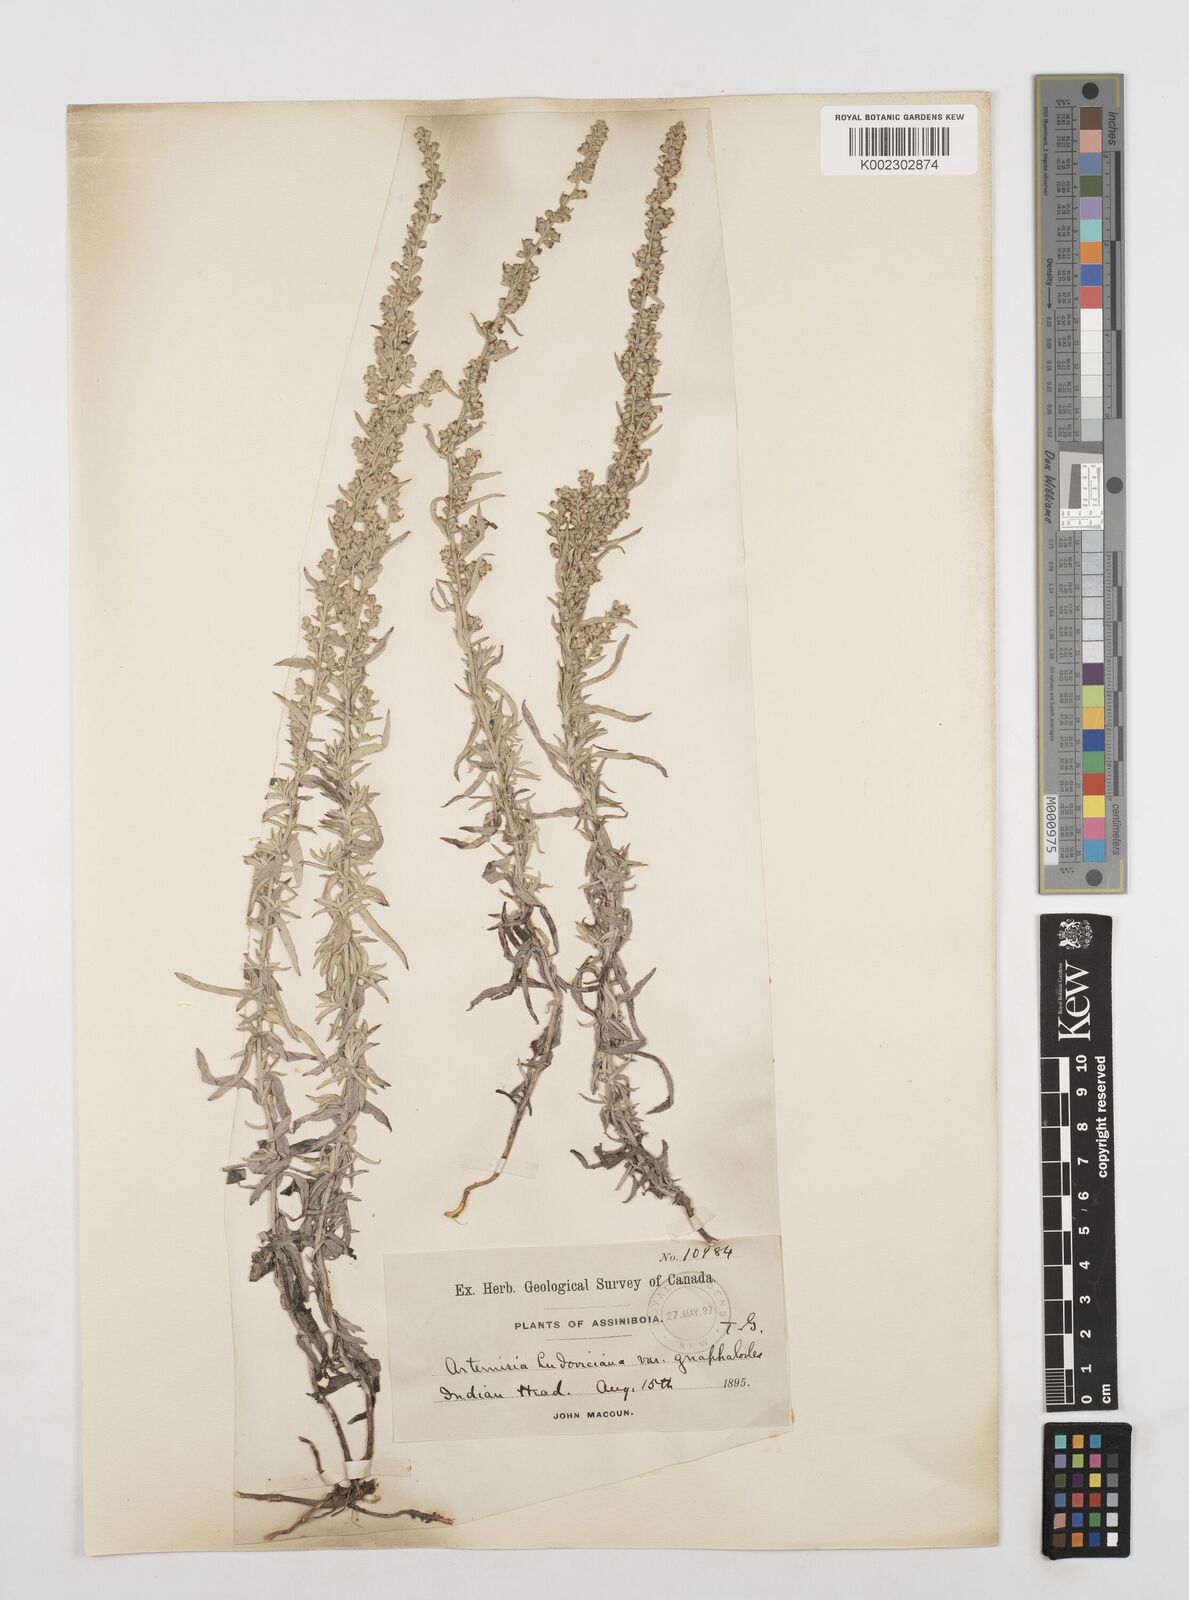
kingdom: Plantae
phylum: Tracheophyta
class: Magnoliopsida
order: Asterales
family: Asteraceae
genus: Artemisia
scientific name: Artemisia ludoviciana
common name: Western mugwort
